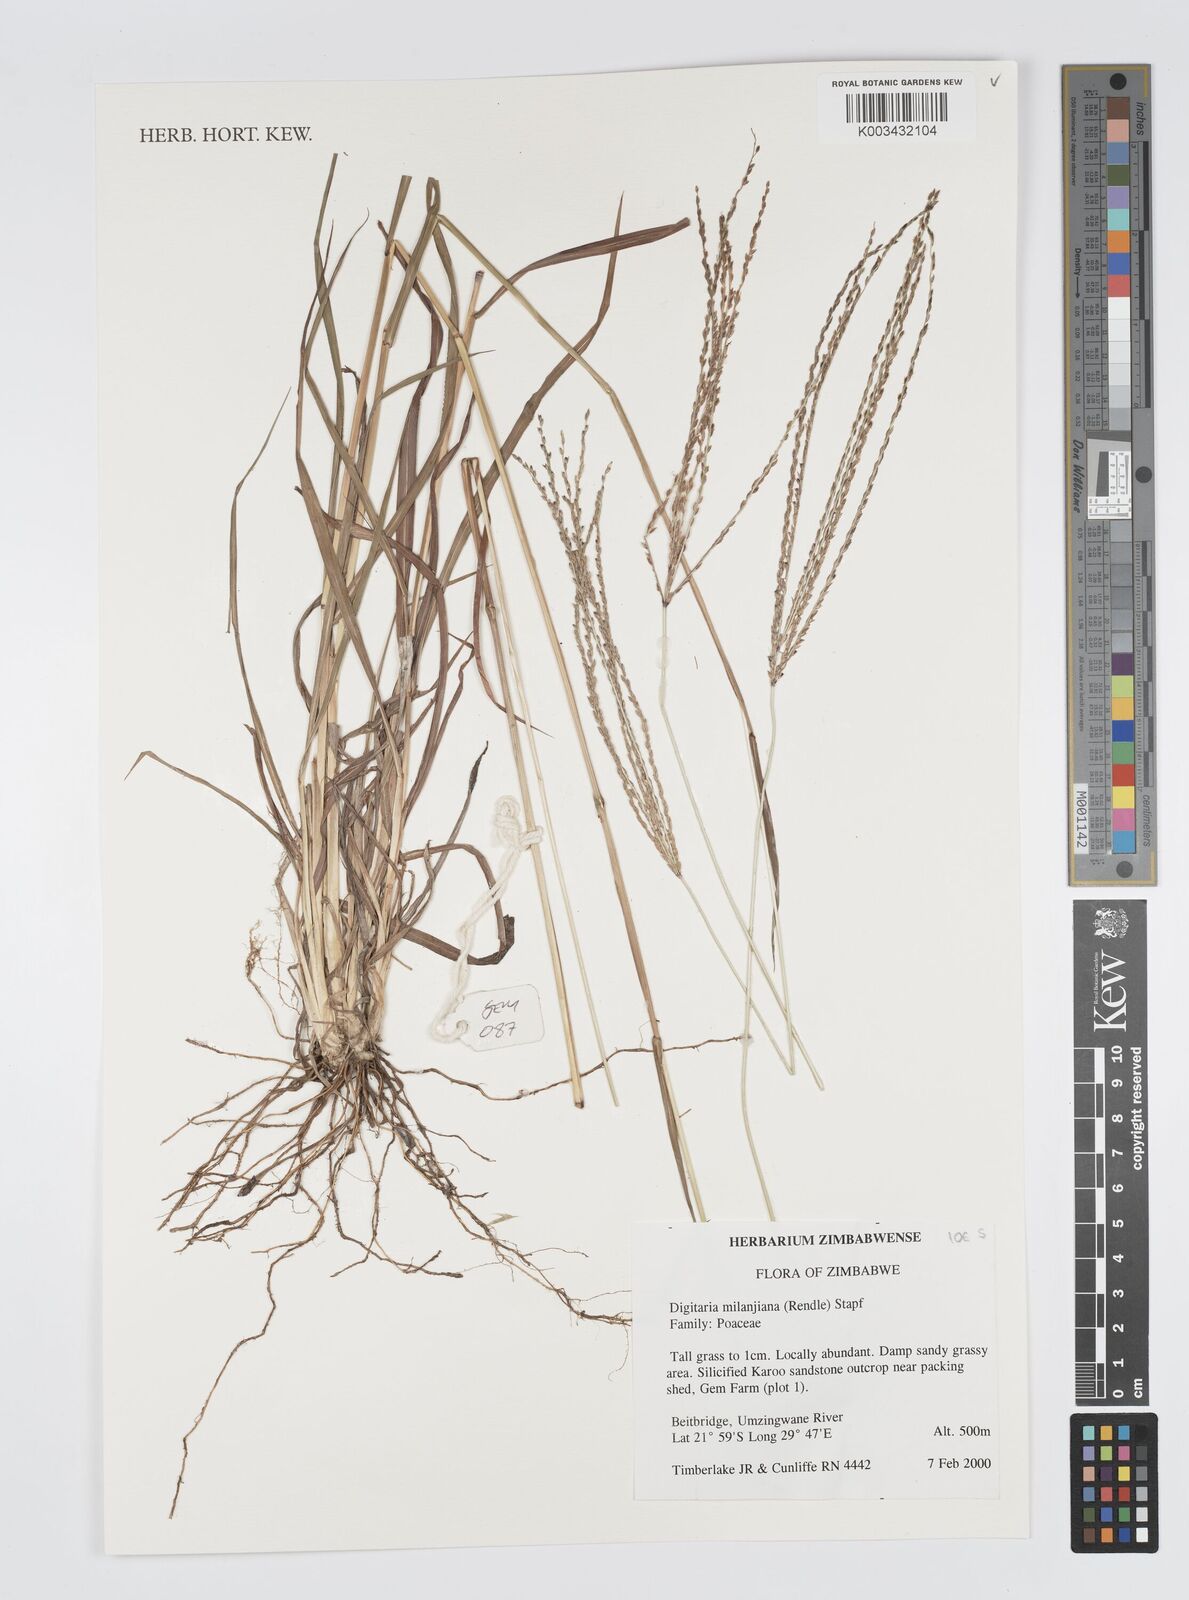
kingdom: Plantae
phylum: Tracheophyta
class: Liliopsida
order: Poales
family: Poaceae
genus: Digitaria
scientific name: Digitaria milanjiana
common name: Madagascar crabgrass
